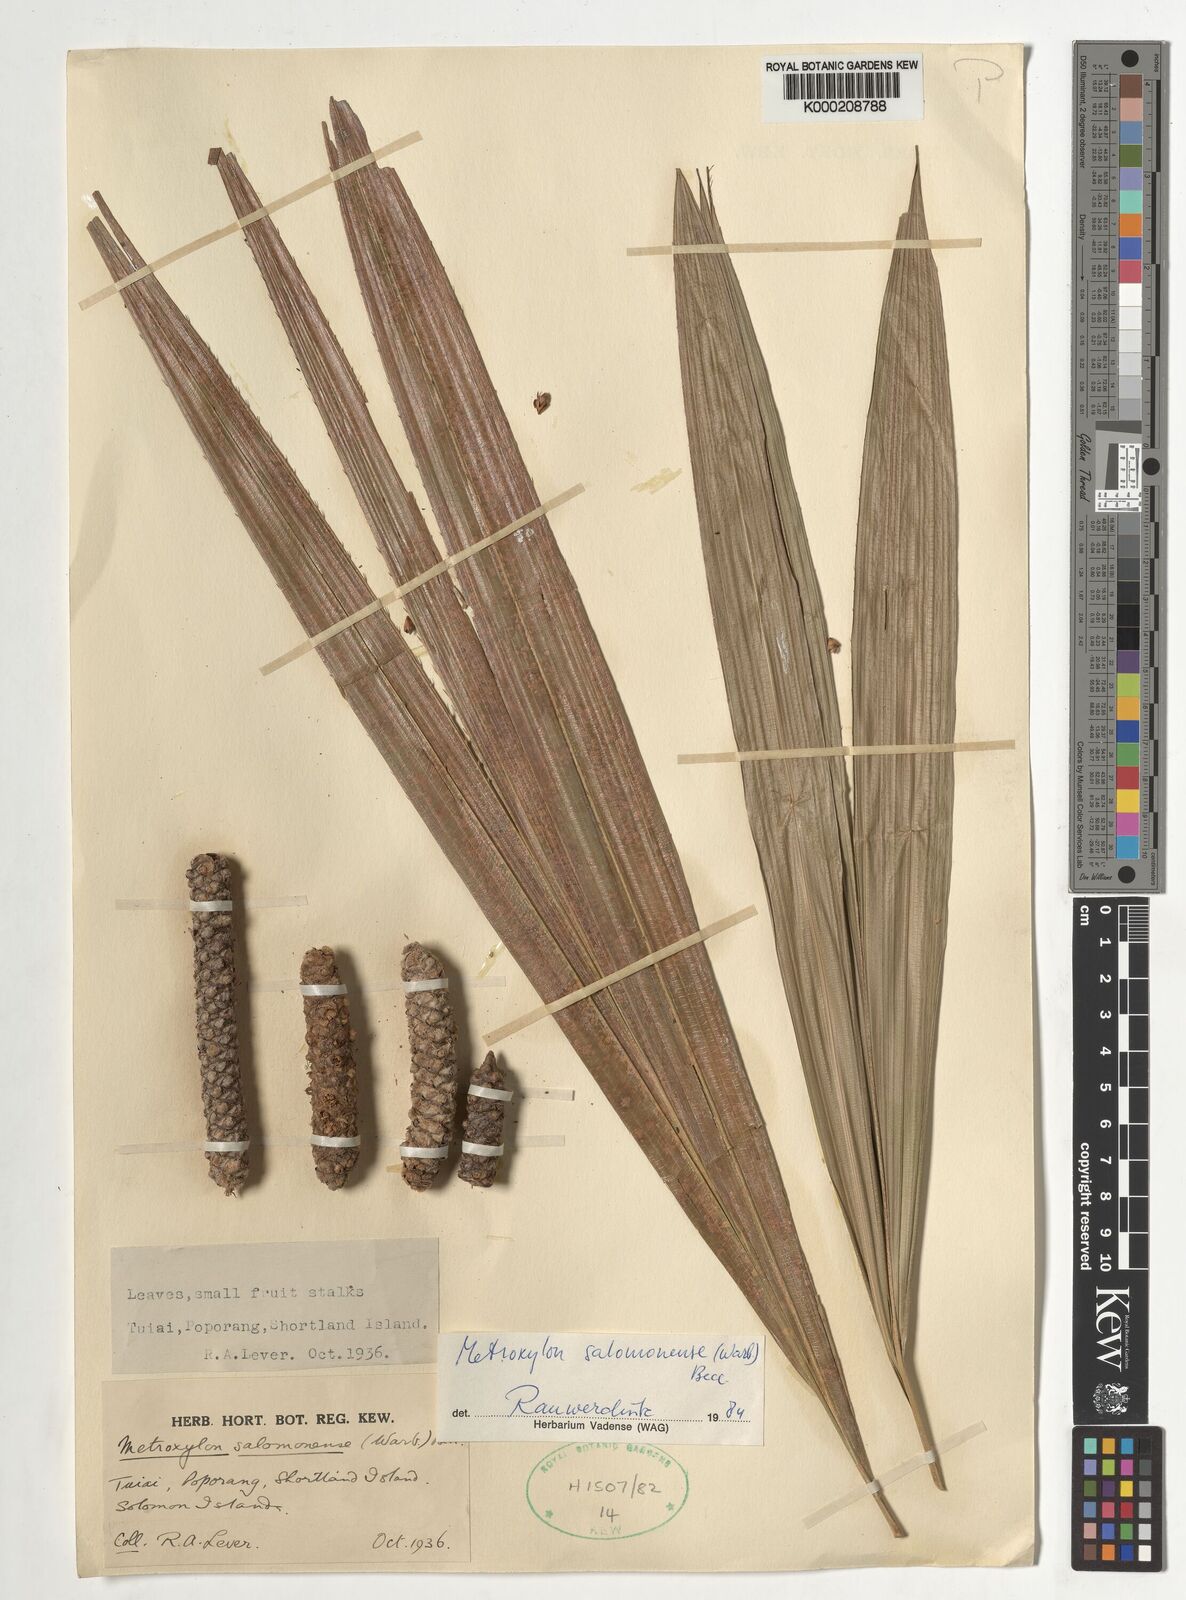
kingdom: Plantae
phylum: Tracheophyta
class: Liliopsida
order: Arecales
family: Arecaceae
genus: Metroxylon
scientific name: Metroxylon salomonense
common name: Solomon's sago palm
